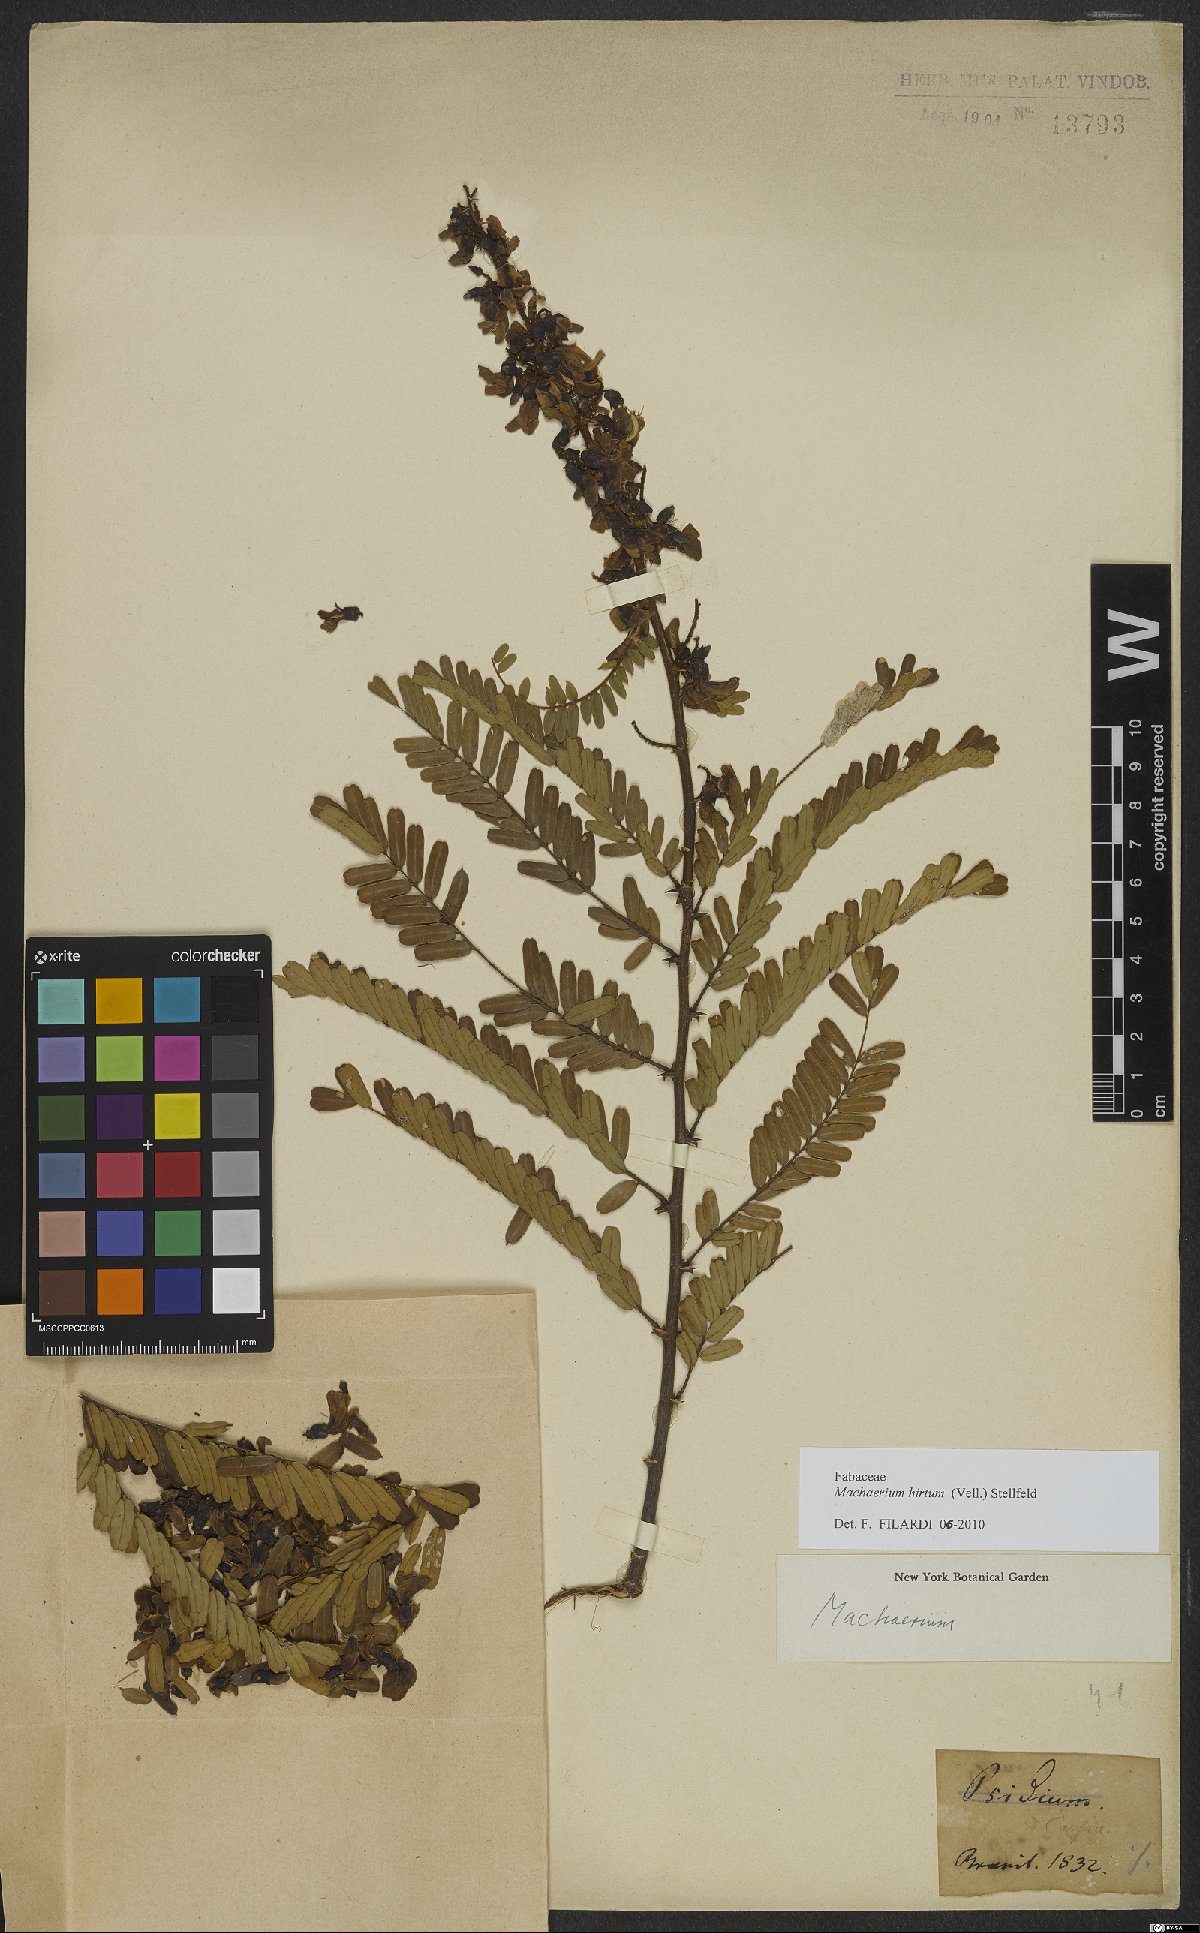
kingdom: Plantae
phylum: Tracheophyta
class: Magnoliopsida
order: Fabales
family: Fabaceae
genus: Machaerium
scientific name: Machaerium hirtum
